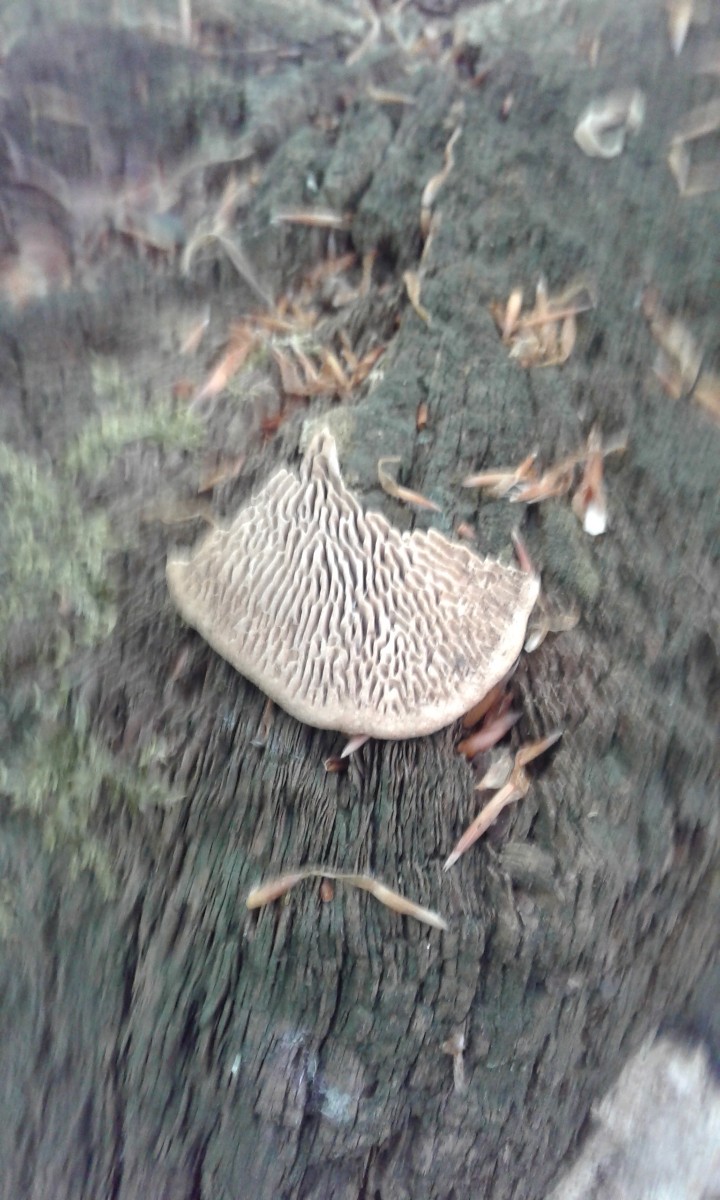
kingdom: Fungi
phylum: Basidiomycota
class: Agaricomycetes
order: Polyporales
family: Fomitopsidaceae
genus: Daedalea
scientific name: Daedalea quercina
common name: ege-labyrintsvamp
